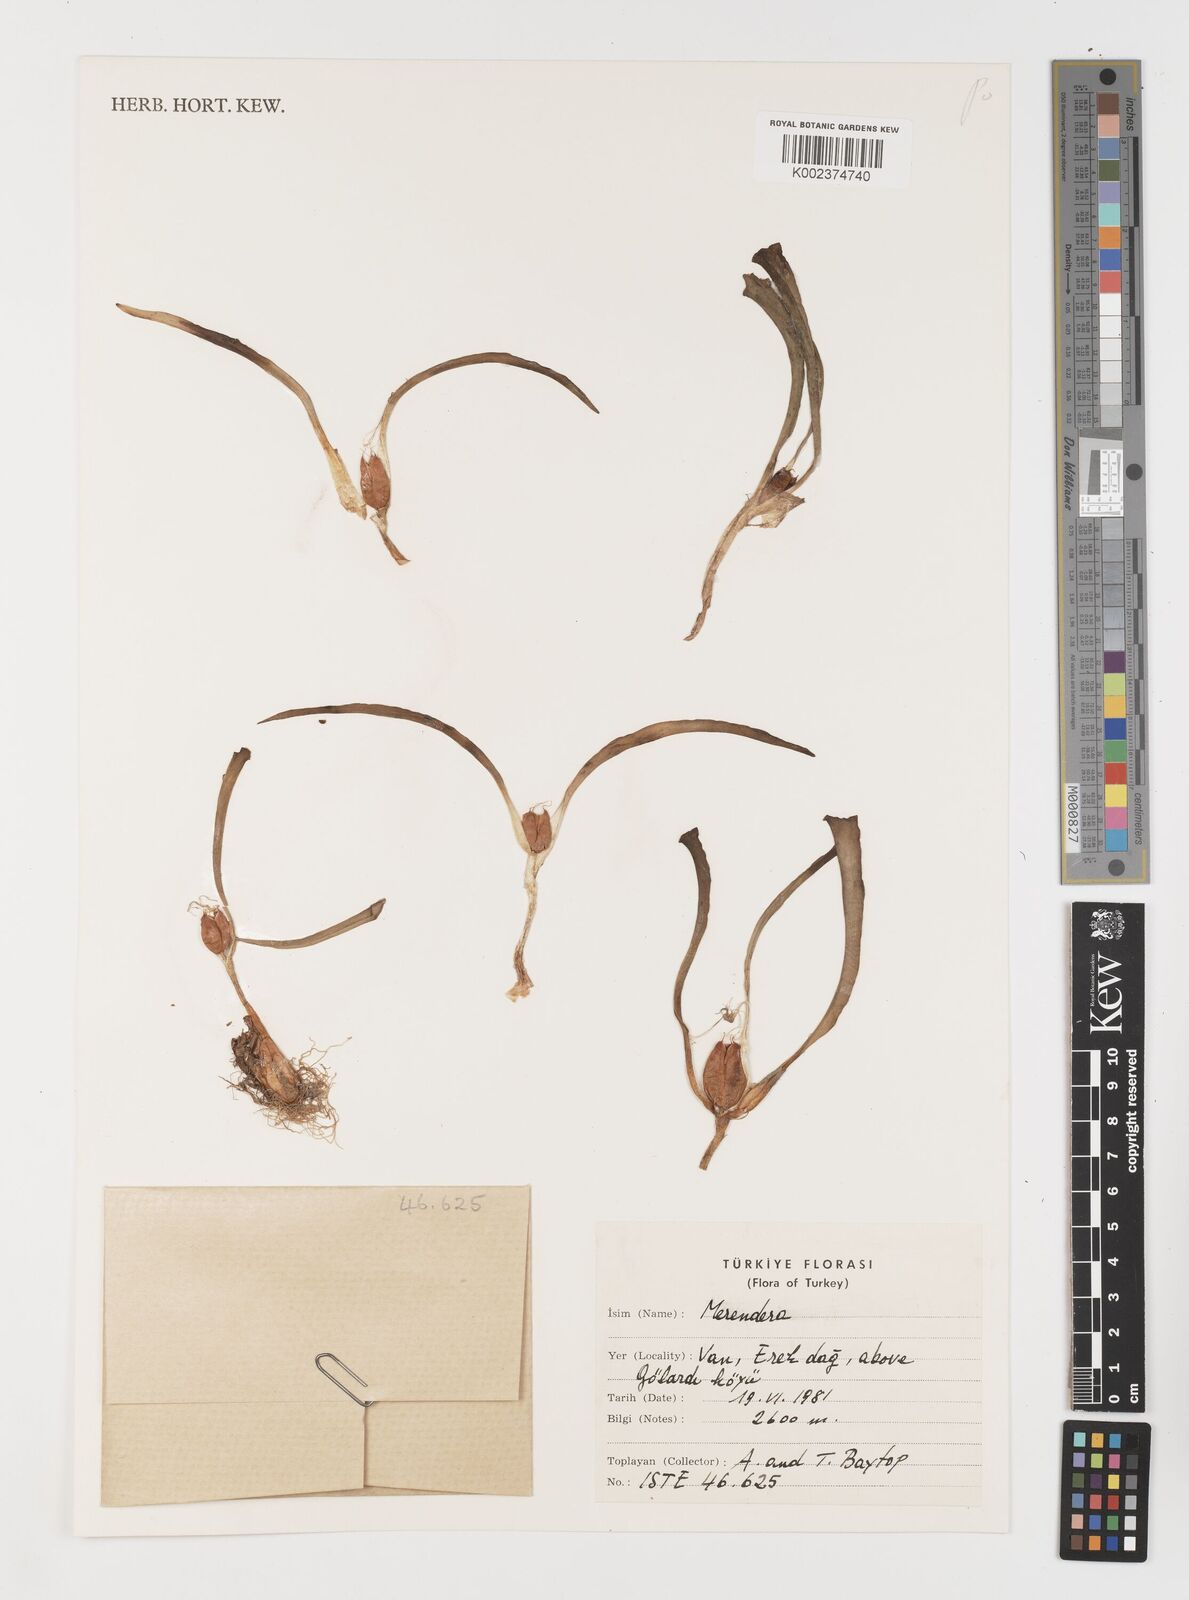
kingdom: Plantae
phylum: Tracheophyta
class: Liliopsida
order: Liliales
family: Colchicaceae
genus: Colchicum
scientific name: Colchicum
